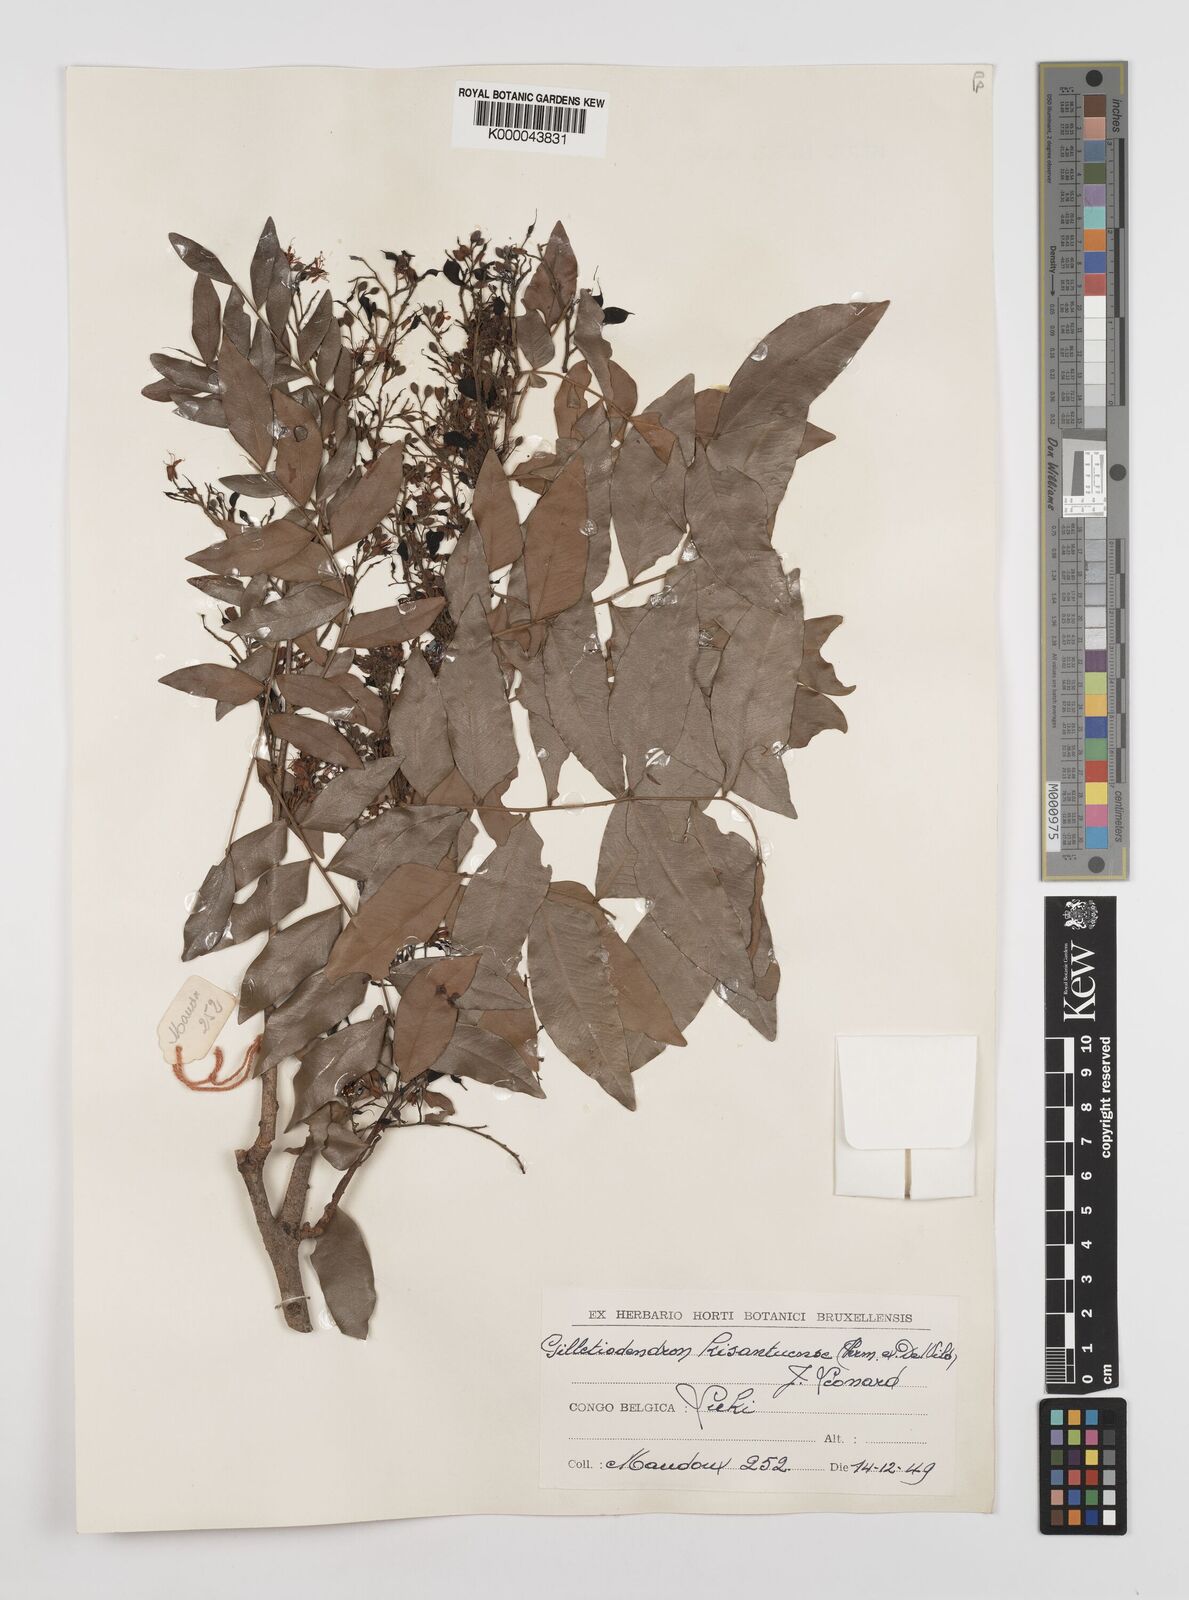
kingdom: Plantae
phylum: Tracheophyta
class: Magnoliopsida
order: Fabales
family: Fabaceae
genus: Guibourtia
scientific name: Guibourtia
